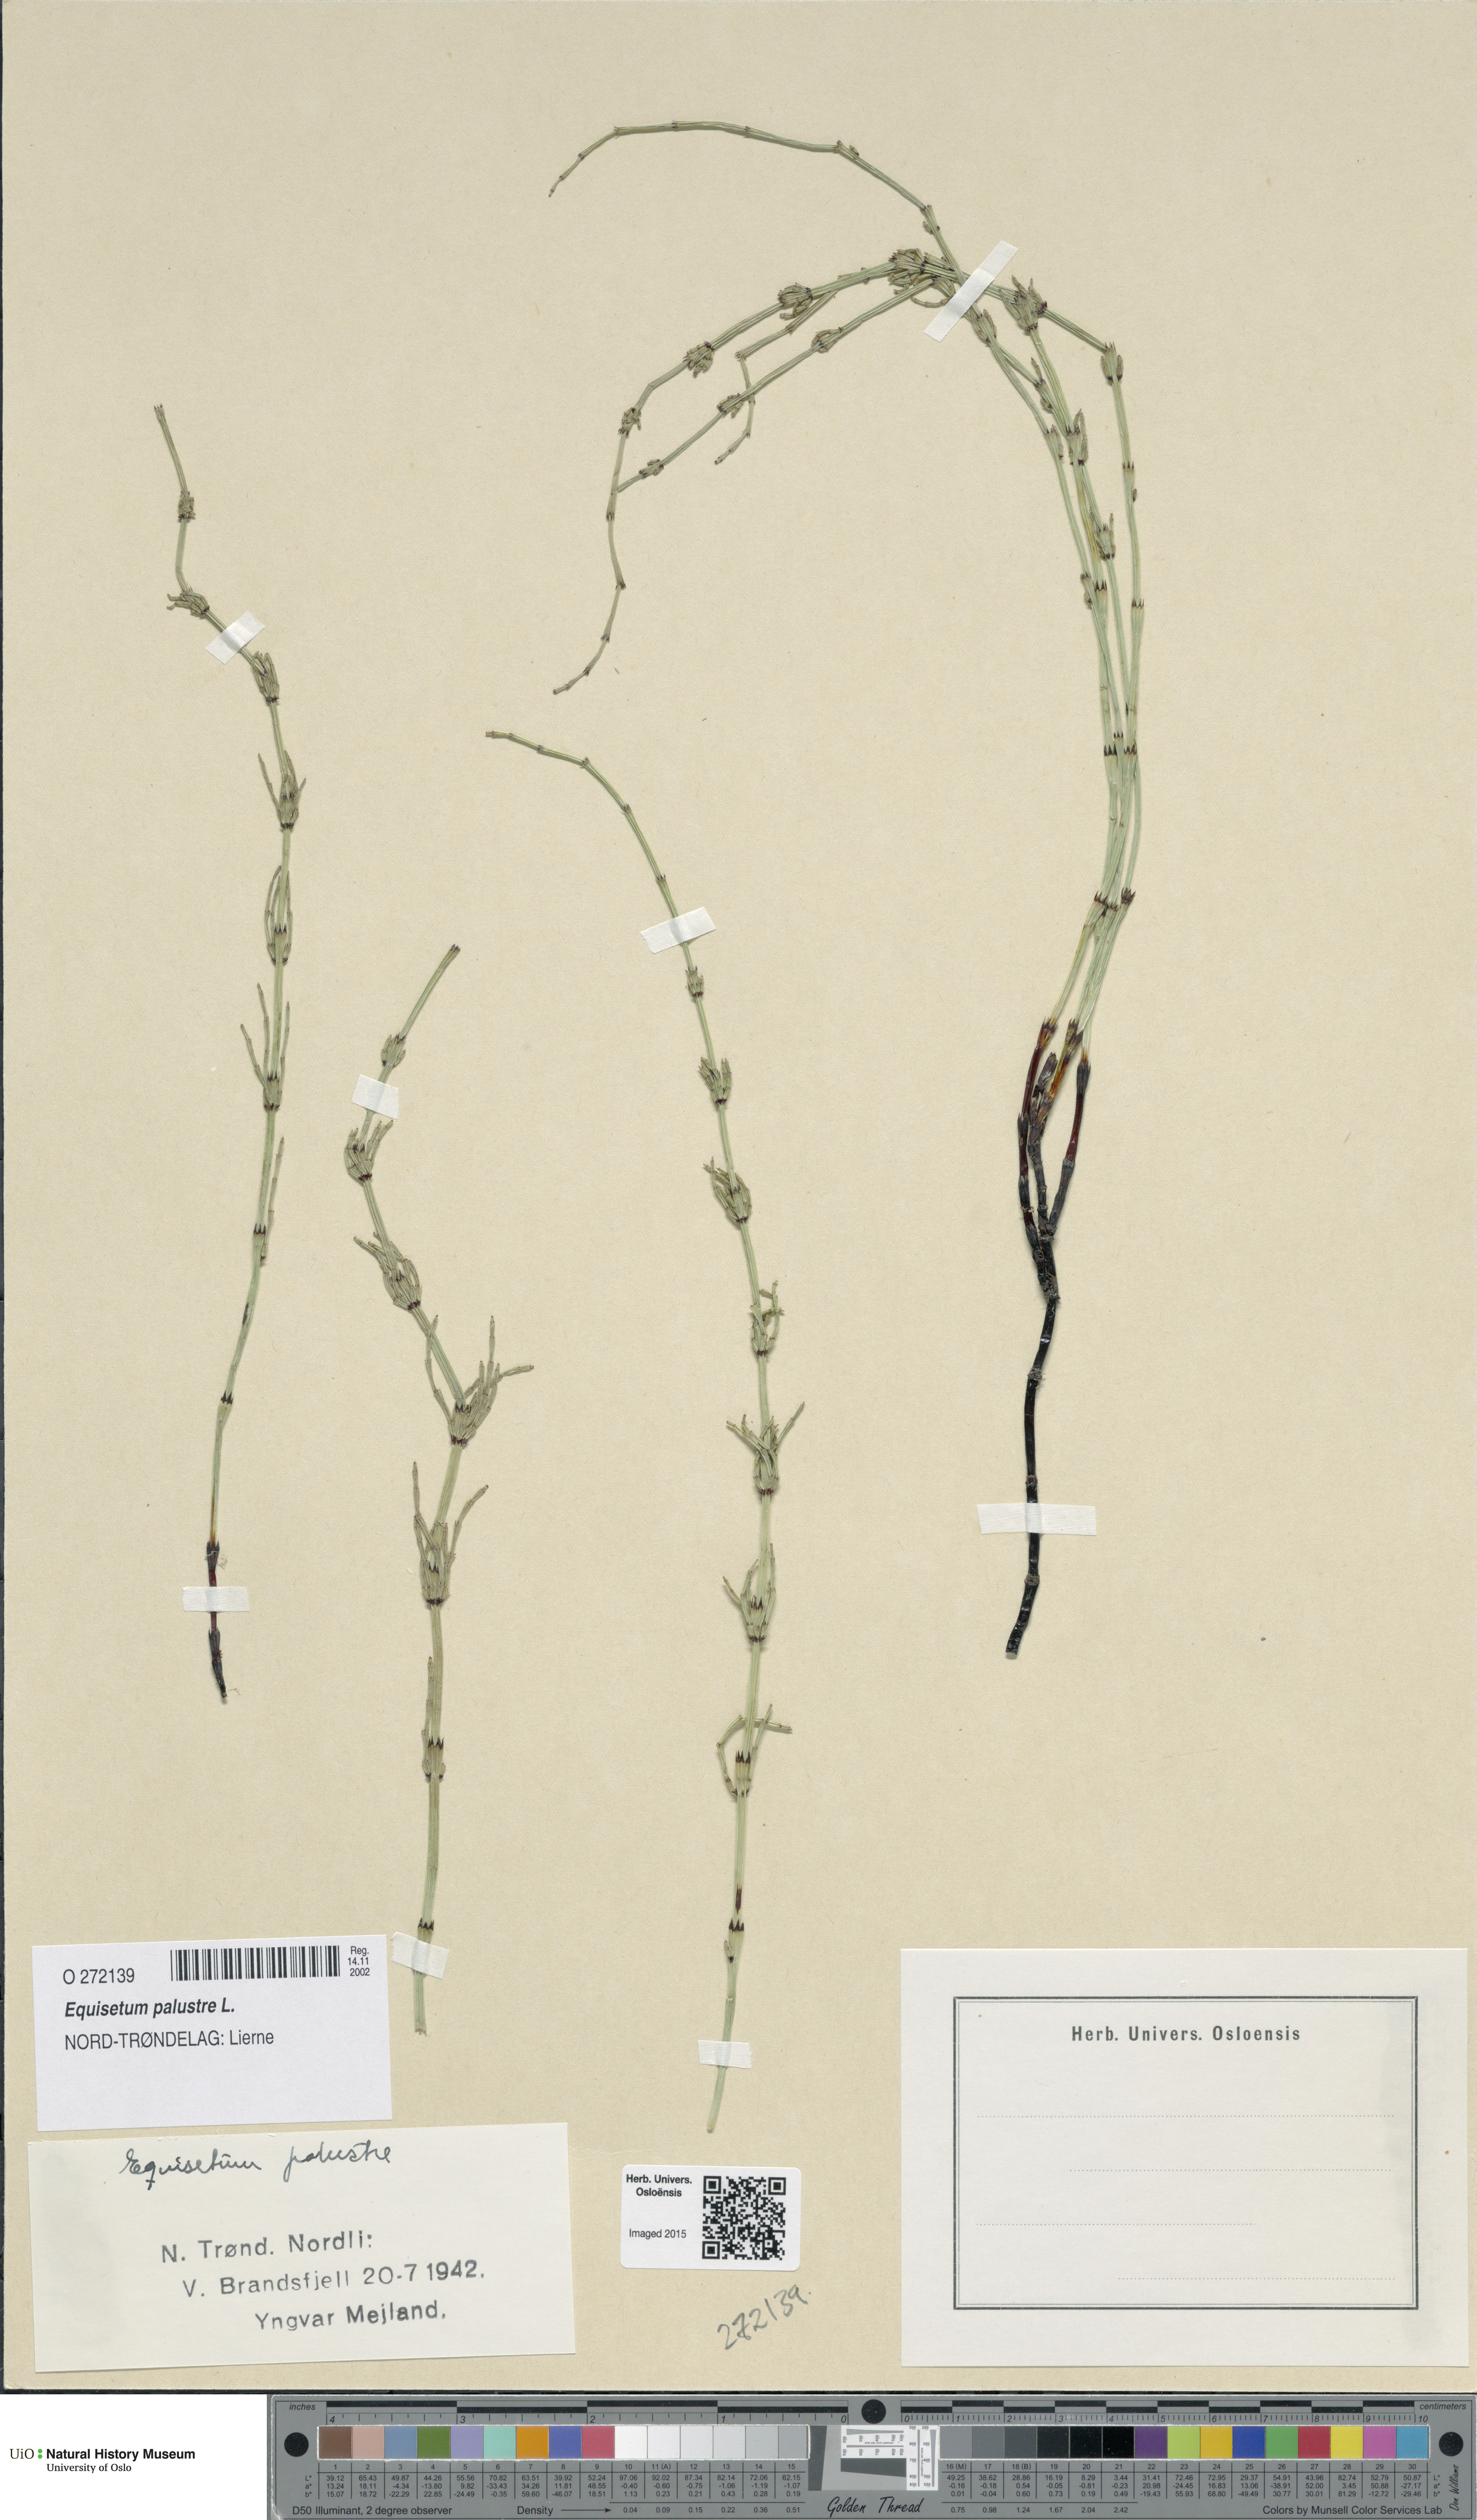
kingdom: Plantae
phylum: Tracheophyta
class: Polypodiopsida
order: Equisetales
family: Equisetaceae
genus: Equisetum
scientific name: Equisetum palustre
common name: Marsh horsetail
